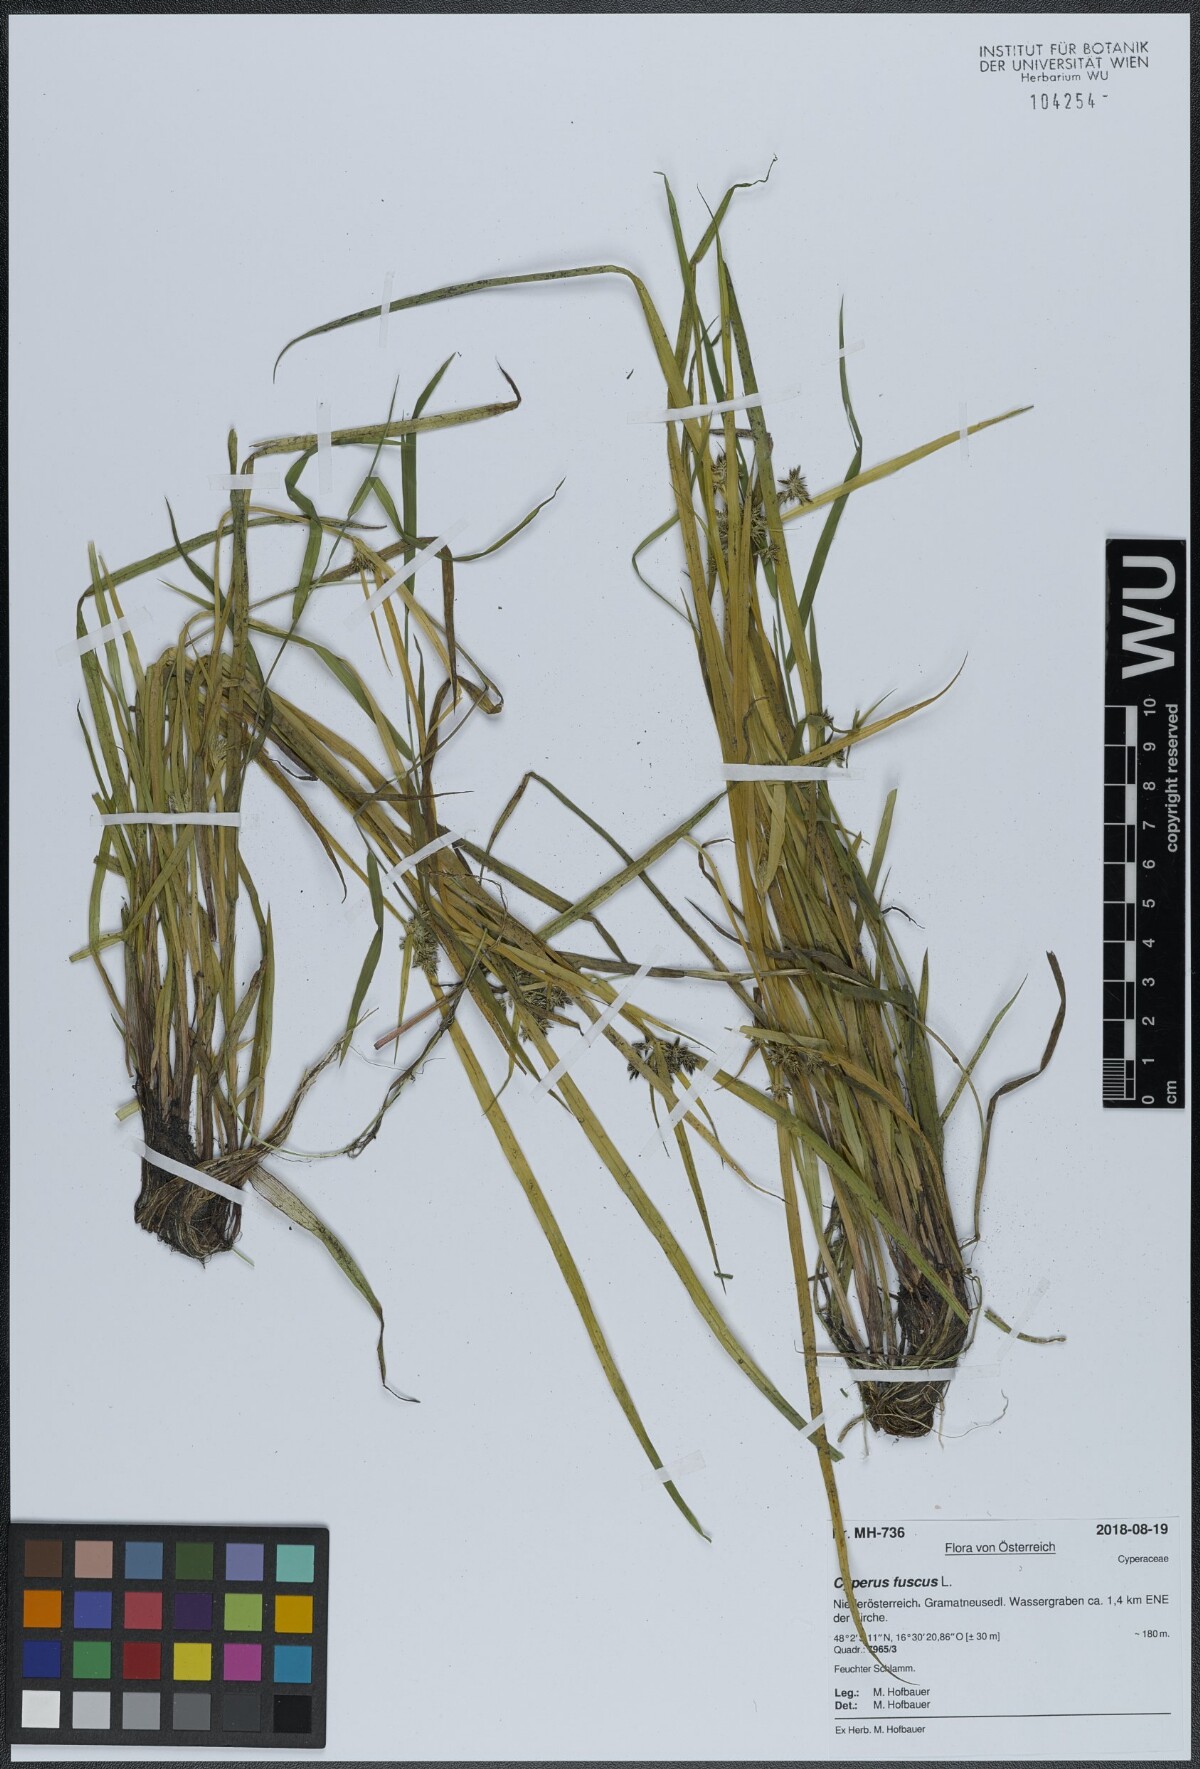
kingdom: Plantae
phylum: Tracheophyta
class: Liliopsida
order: Poales
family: Cyperaceae
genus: Cyperus
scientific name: Cyperus fuscus
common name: Brown galingale
